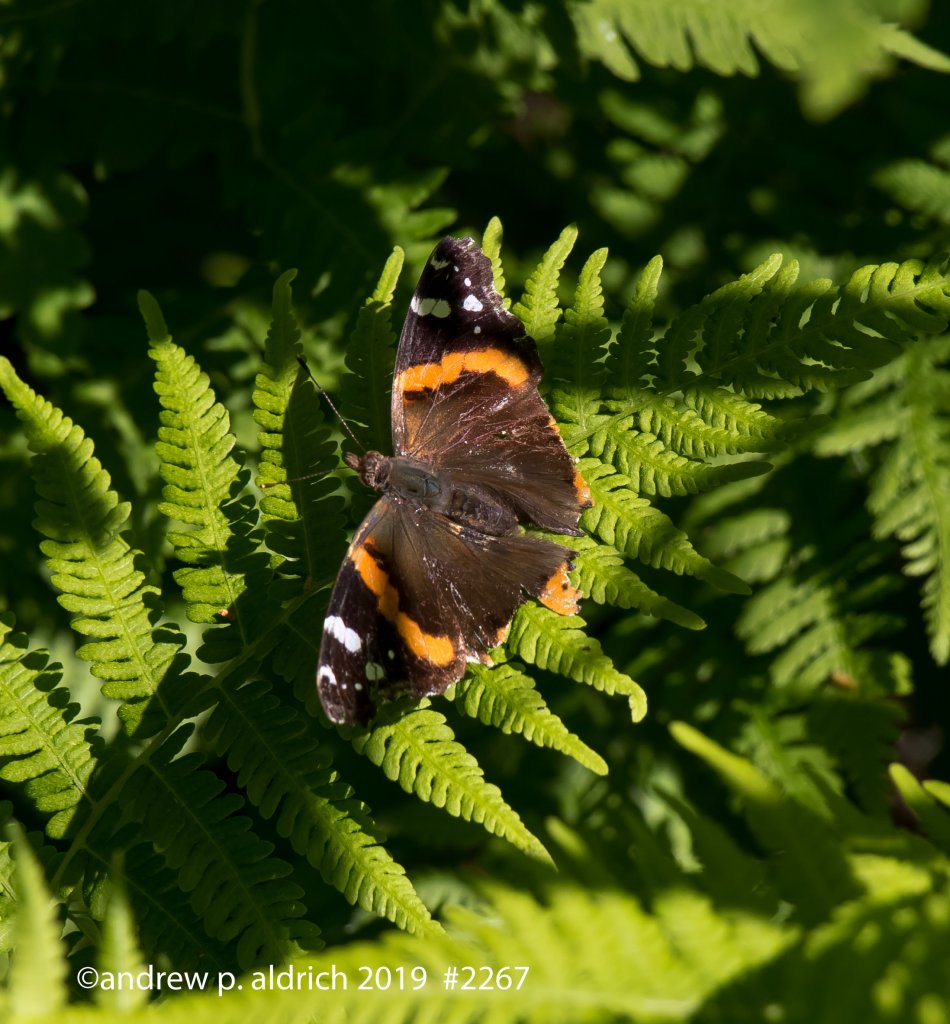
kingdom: Animalia
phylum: Arthropoda
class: Insecta
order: Lepidoptera
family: Nymphalidae
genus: Vanessa
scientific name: Vanessa atalanta
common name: Red Admiral
